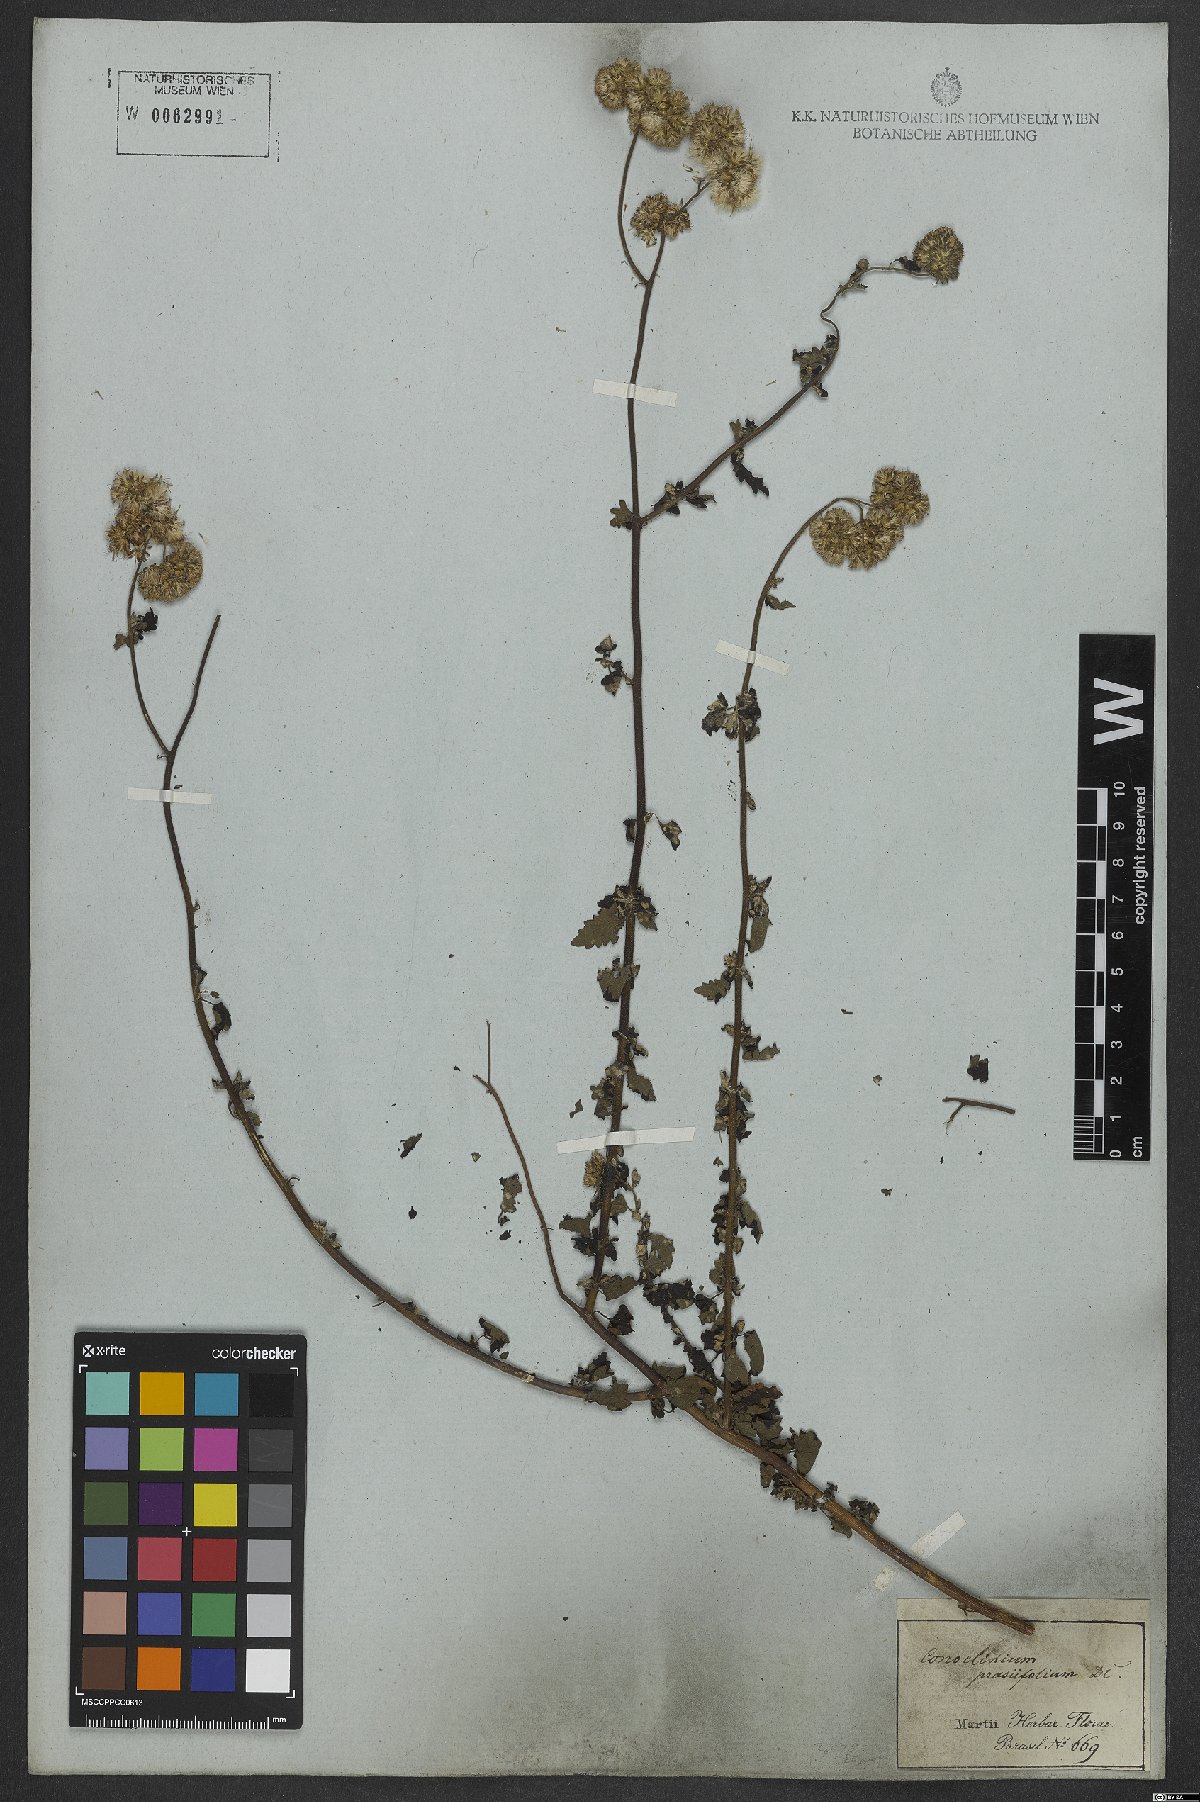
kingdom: Plantae
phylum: Tracheophyta
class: Magnoliopsida
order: Asterales
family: Asteraceae
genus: Conocliniopsis
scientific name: Conocliniopsis grossedentata
